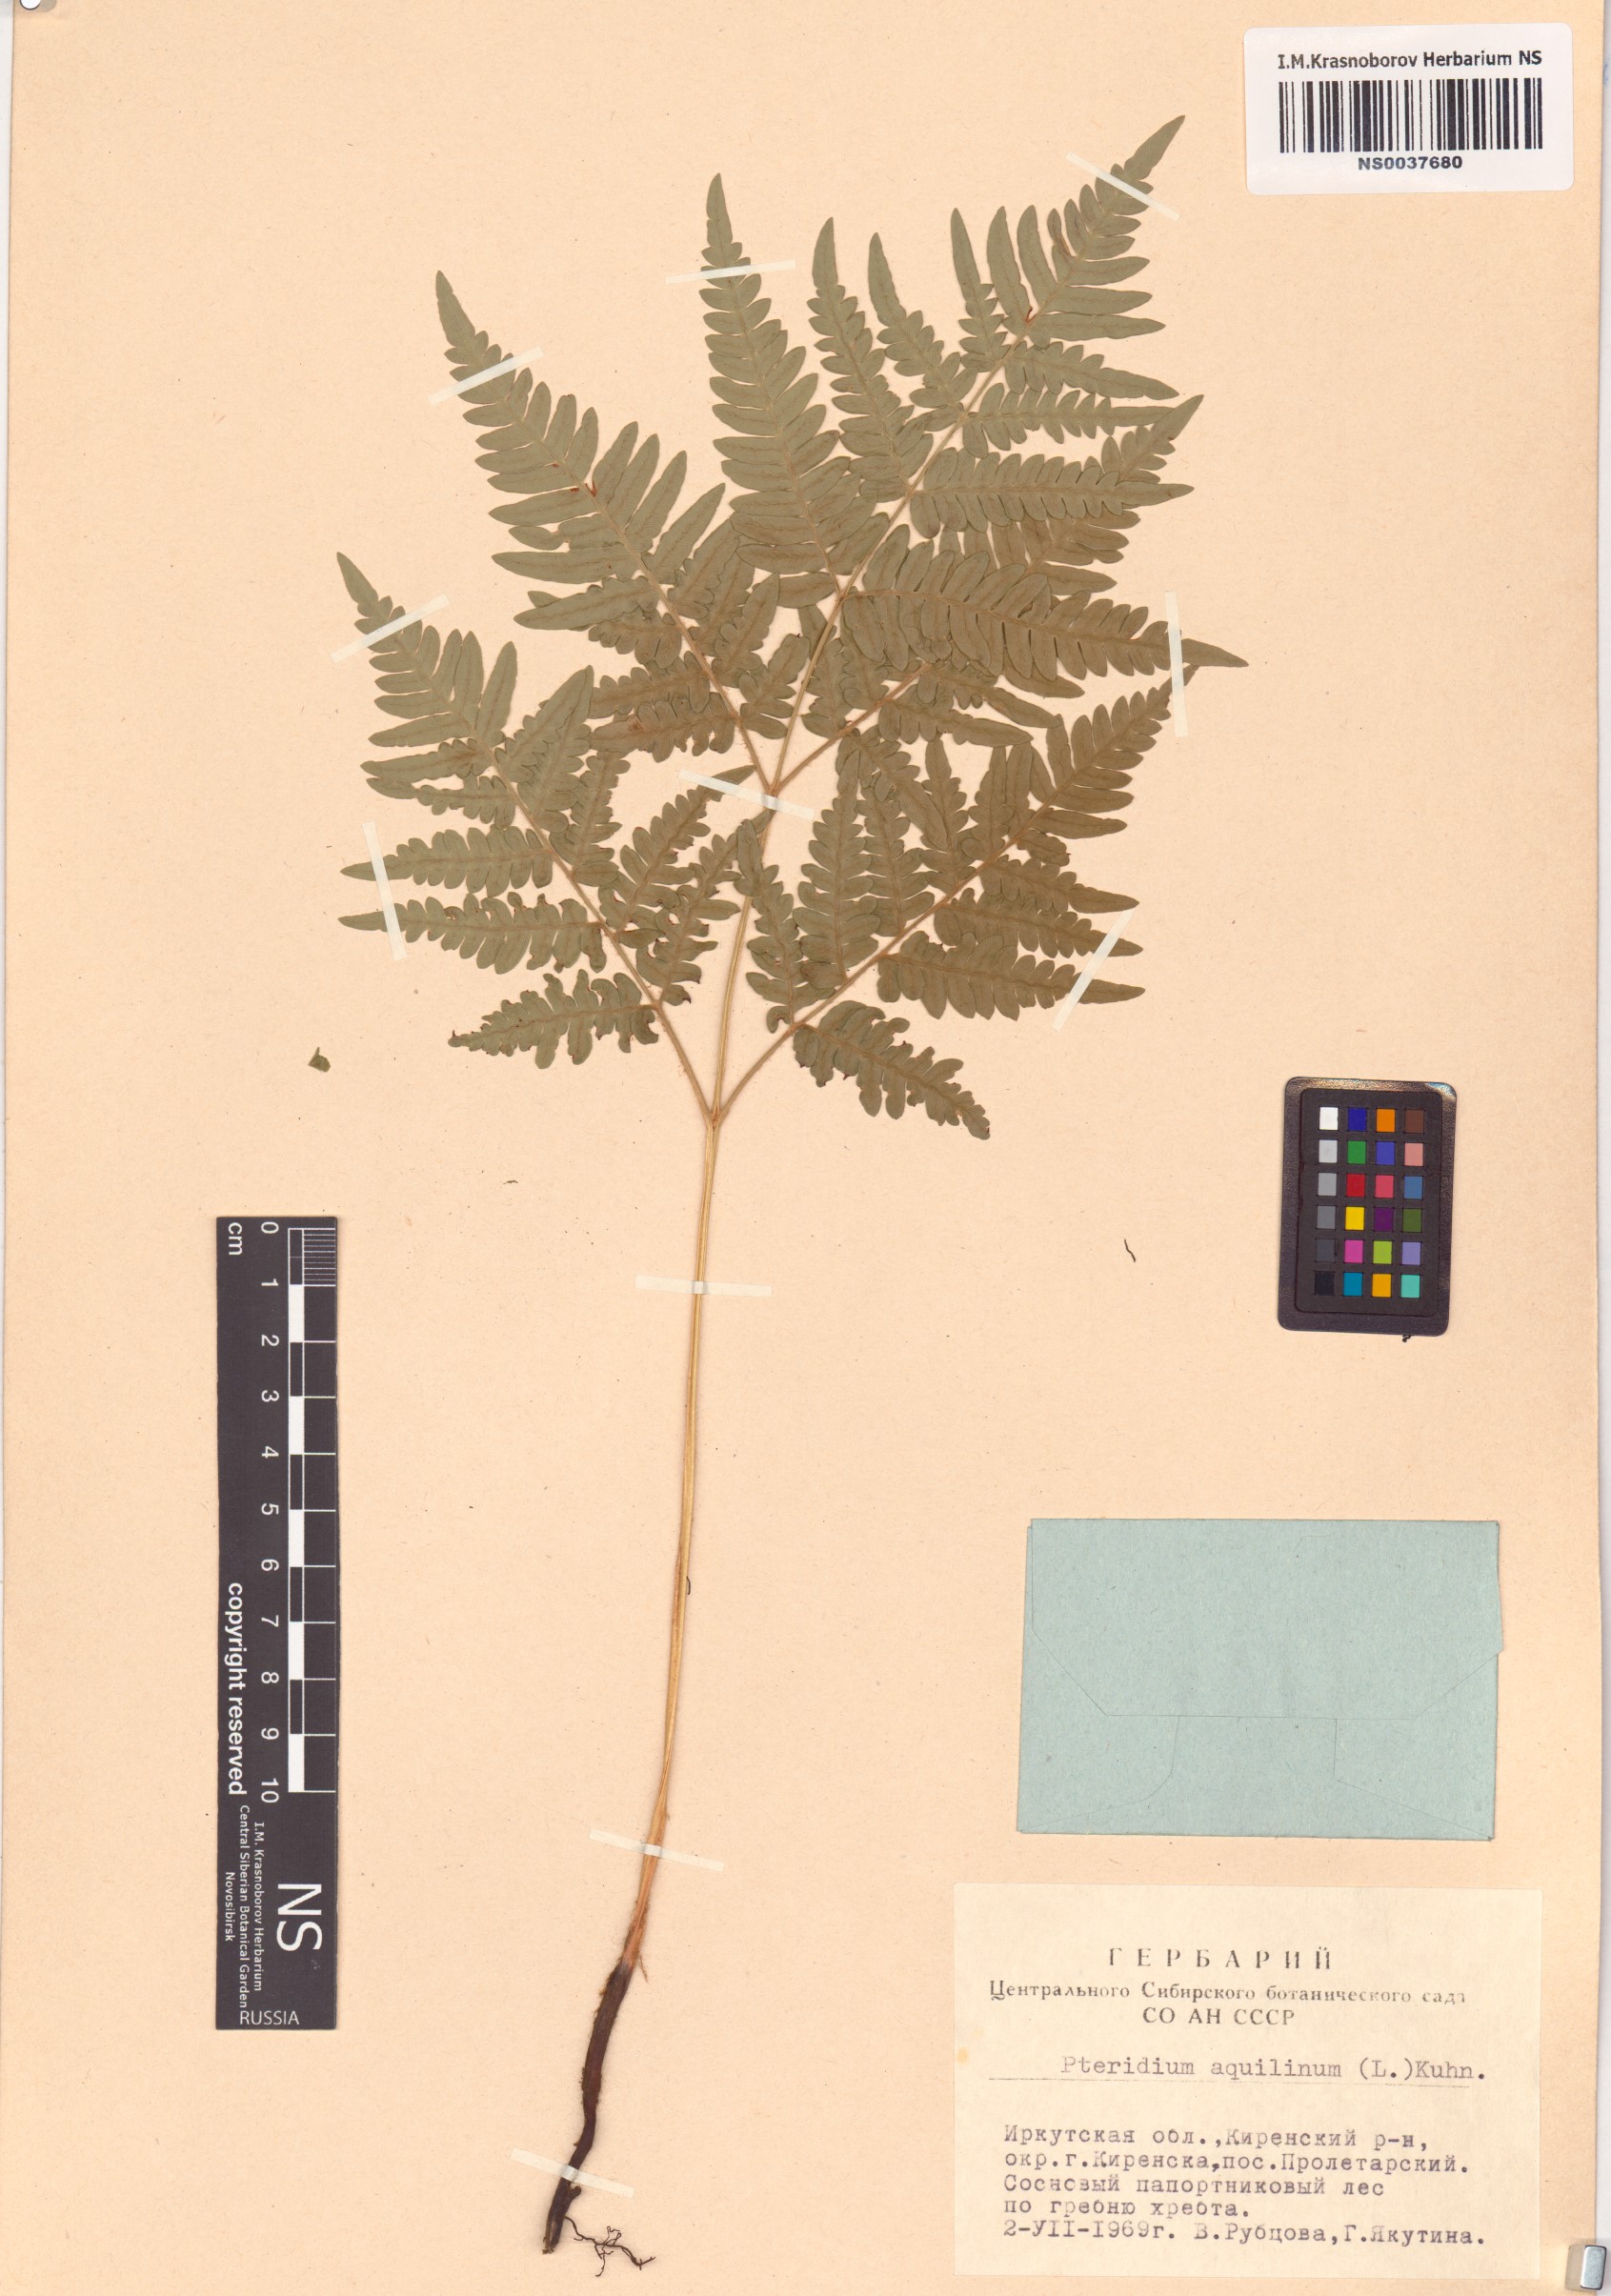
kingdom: Plantae
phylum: Tracheophyta
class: Polypodiopsida
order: Polypodiales
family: Dennstaedtiaceae
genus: Pteridium
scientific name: Pteridium aquilinum
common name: Bracken
